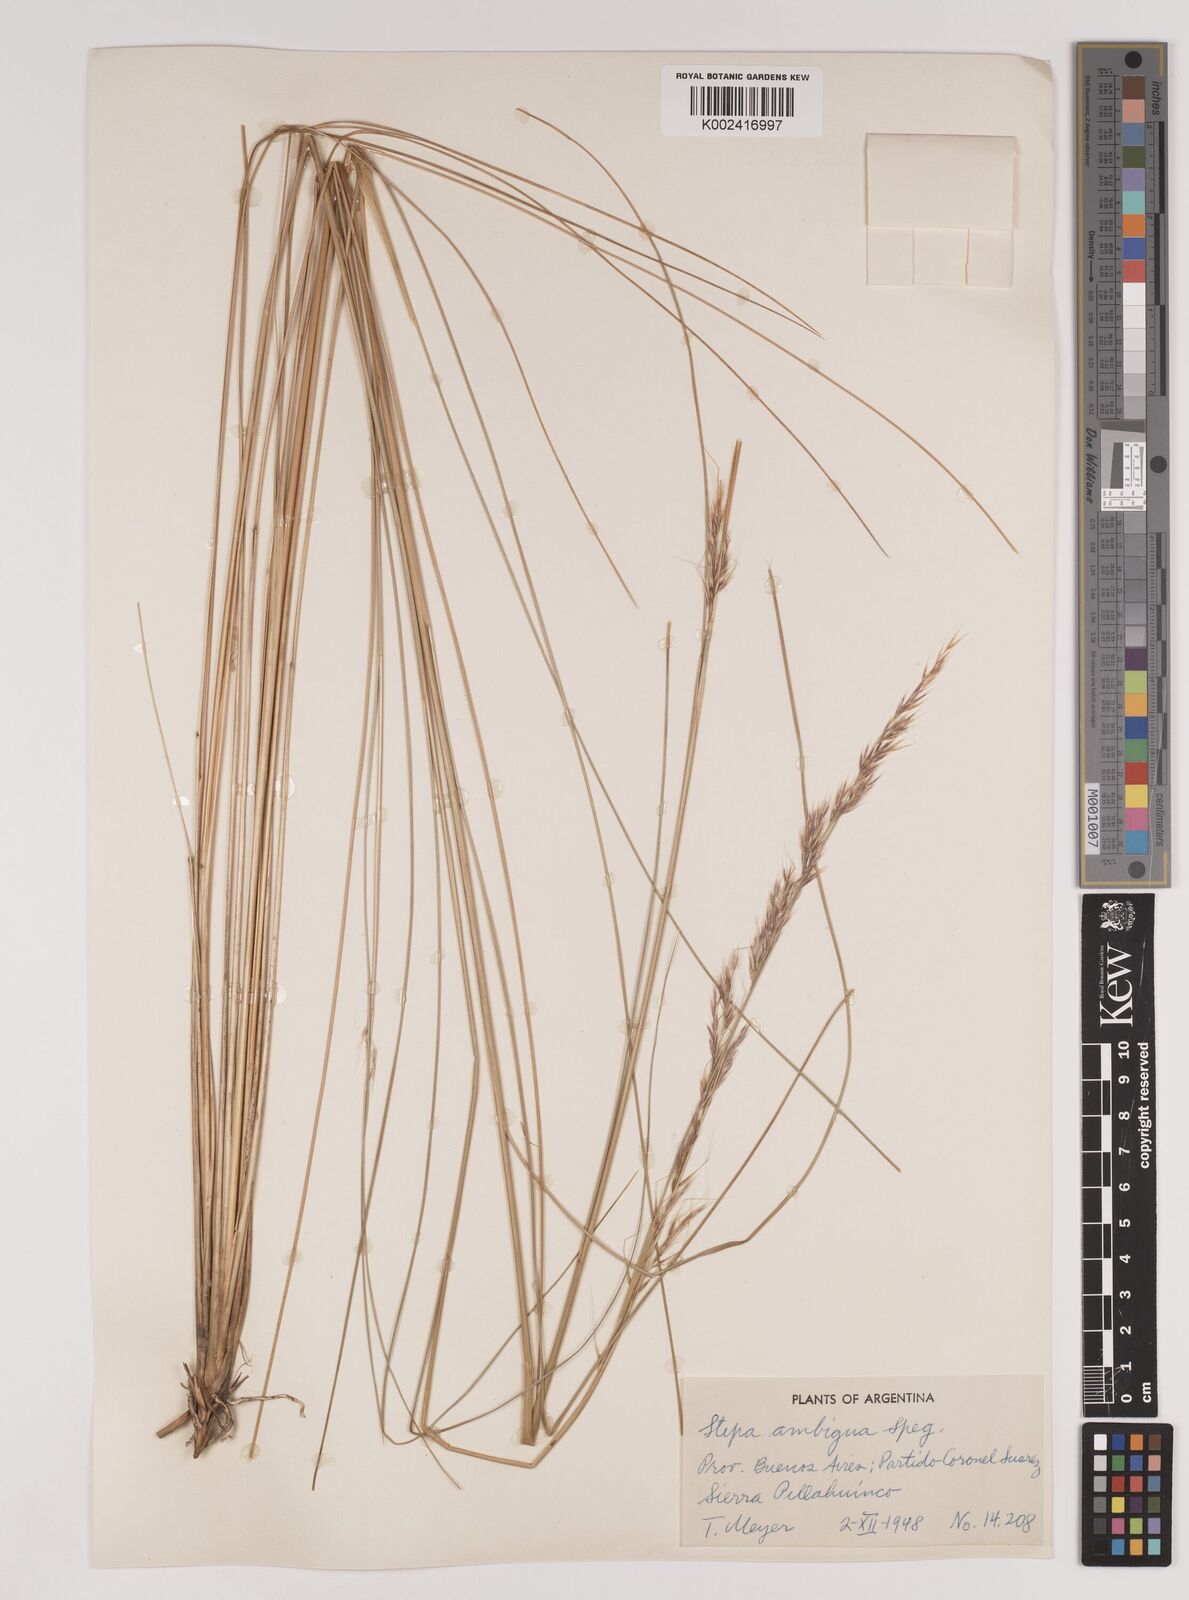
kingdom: Plantae
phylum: Tracheophyta
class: Liliopsida
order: Poales
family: Poaceae
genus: Amelichloa
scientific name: Amelichloa ambigua
